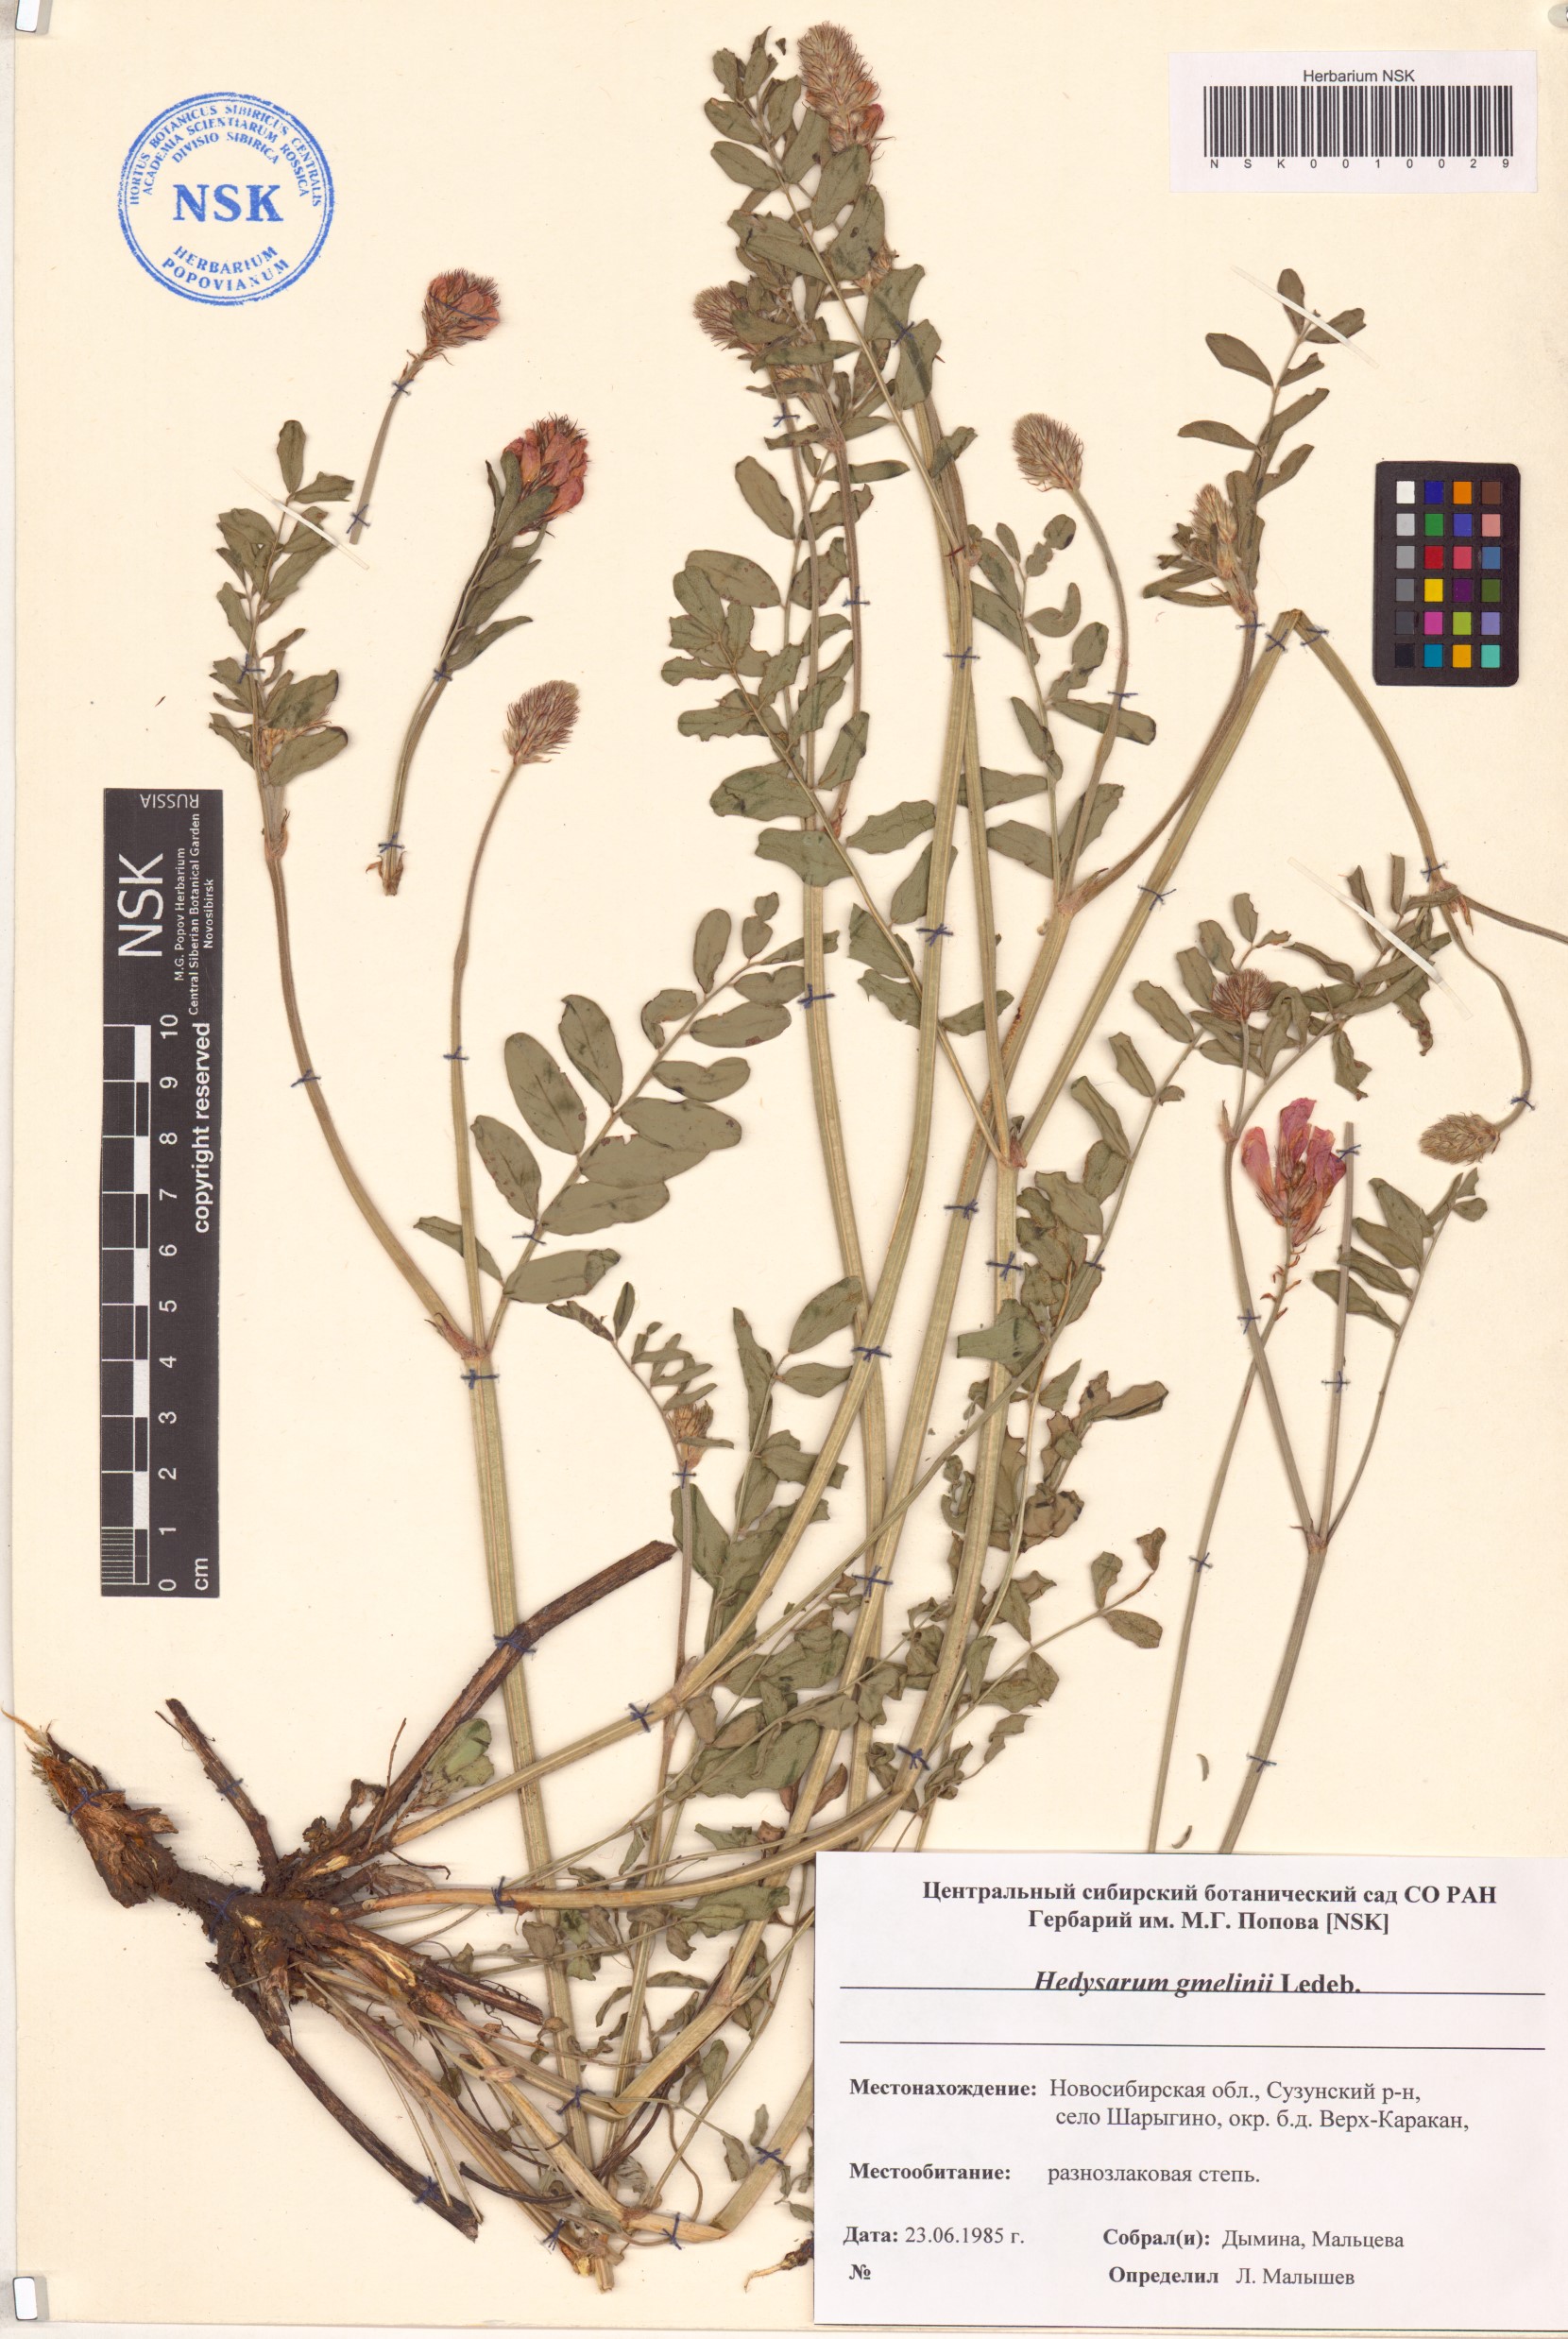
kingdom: Plantae
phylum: Tracheophyta
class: Magnoliopsida
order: Fabales
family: Fabaceae
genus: Hedysarum
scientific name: Hedysarum gmelinii
